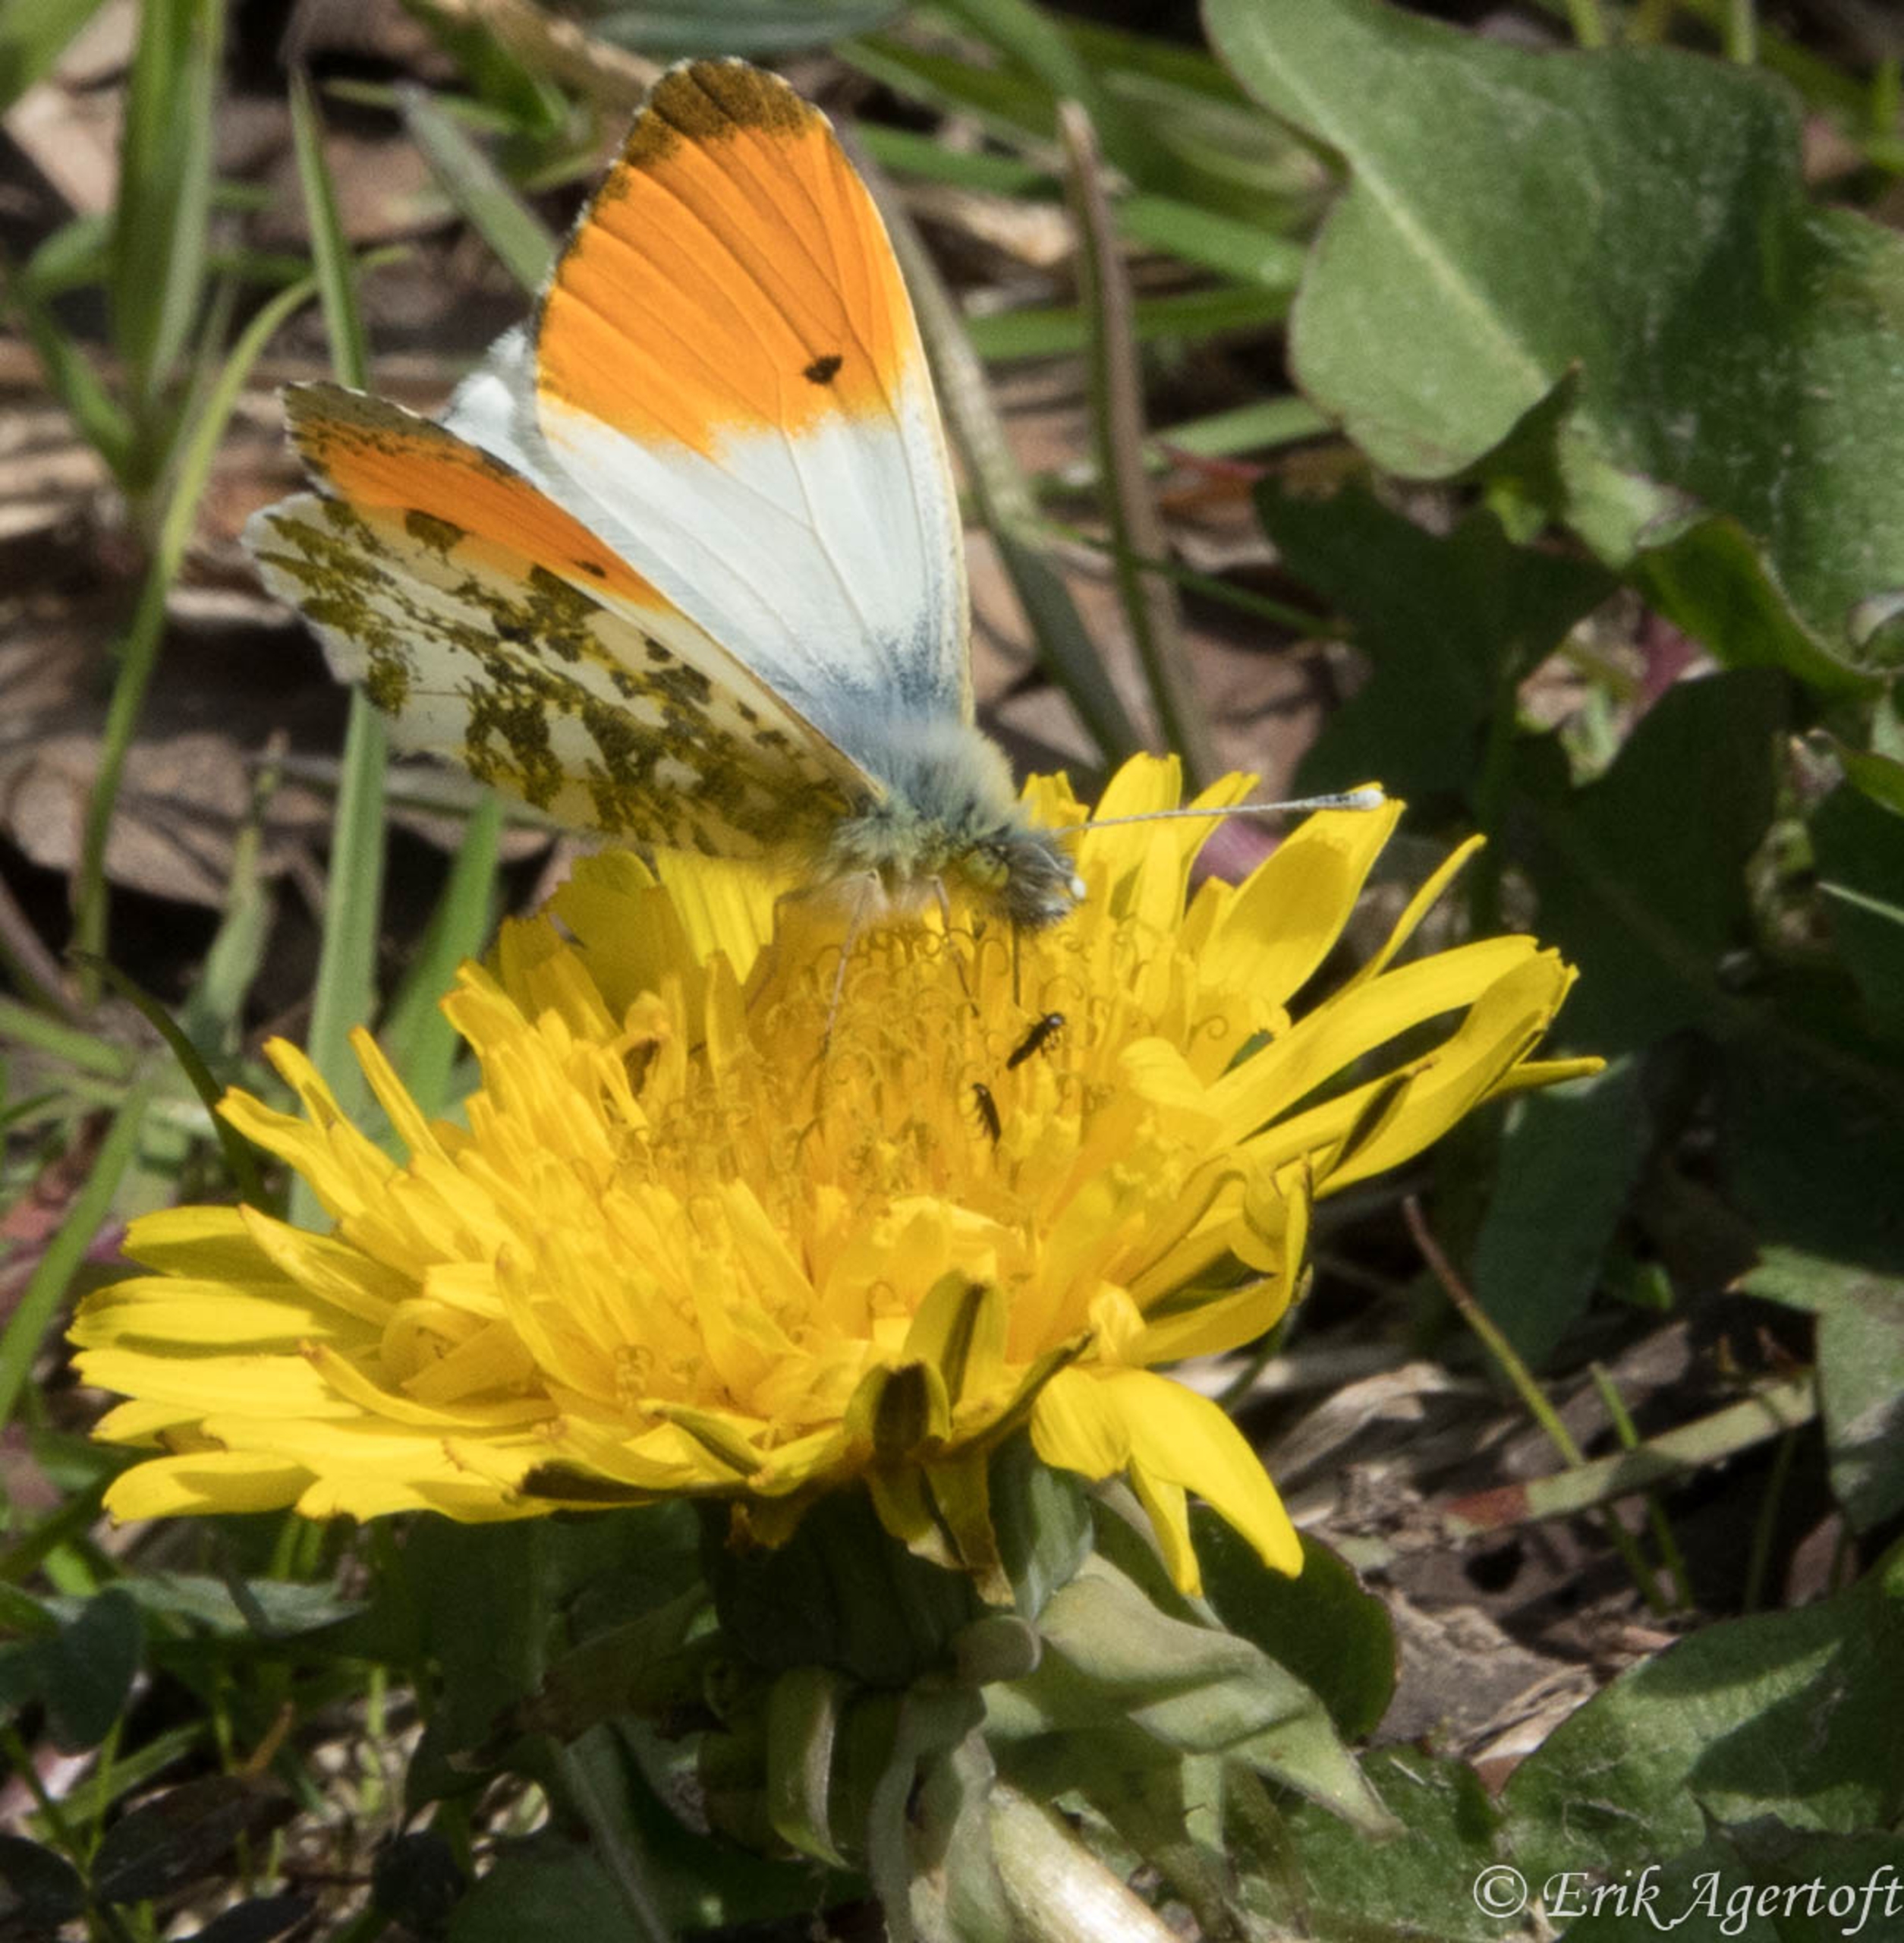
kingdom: Animalia
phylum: Arthropoda
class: Insecta
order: Lepidoptera
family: Pieridae
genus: Anthocharis
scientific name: Anthocharis cardamines
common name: Aurora
